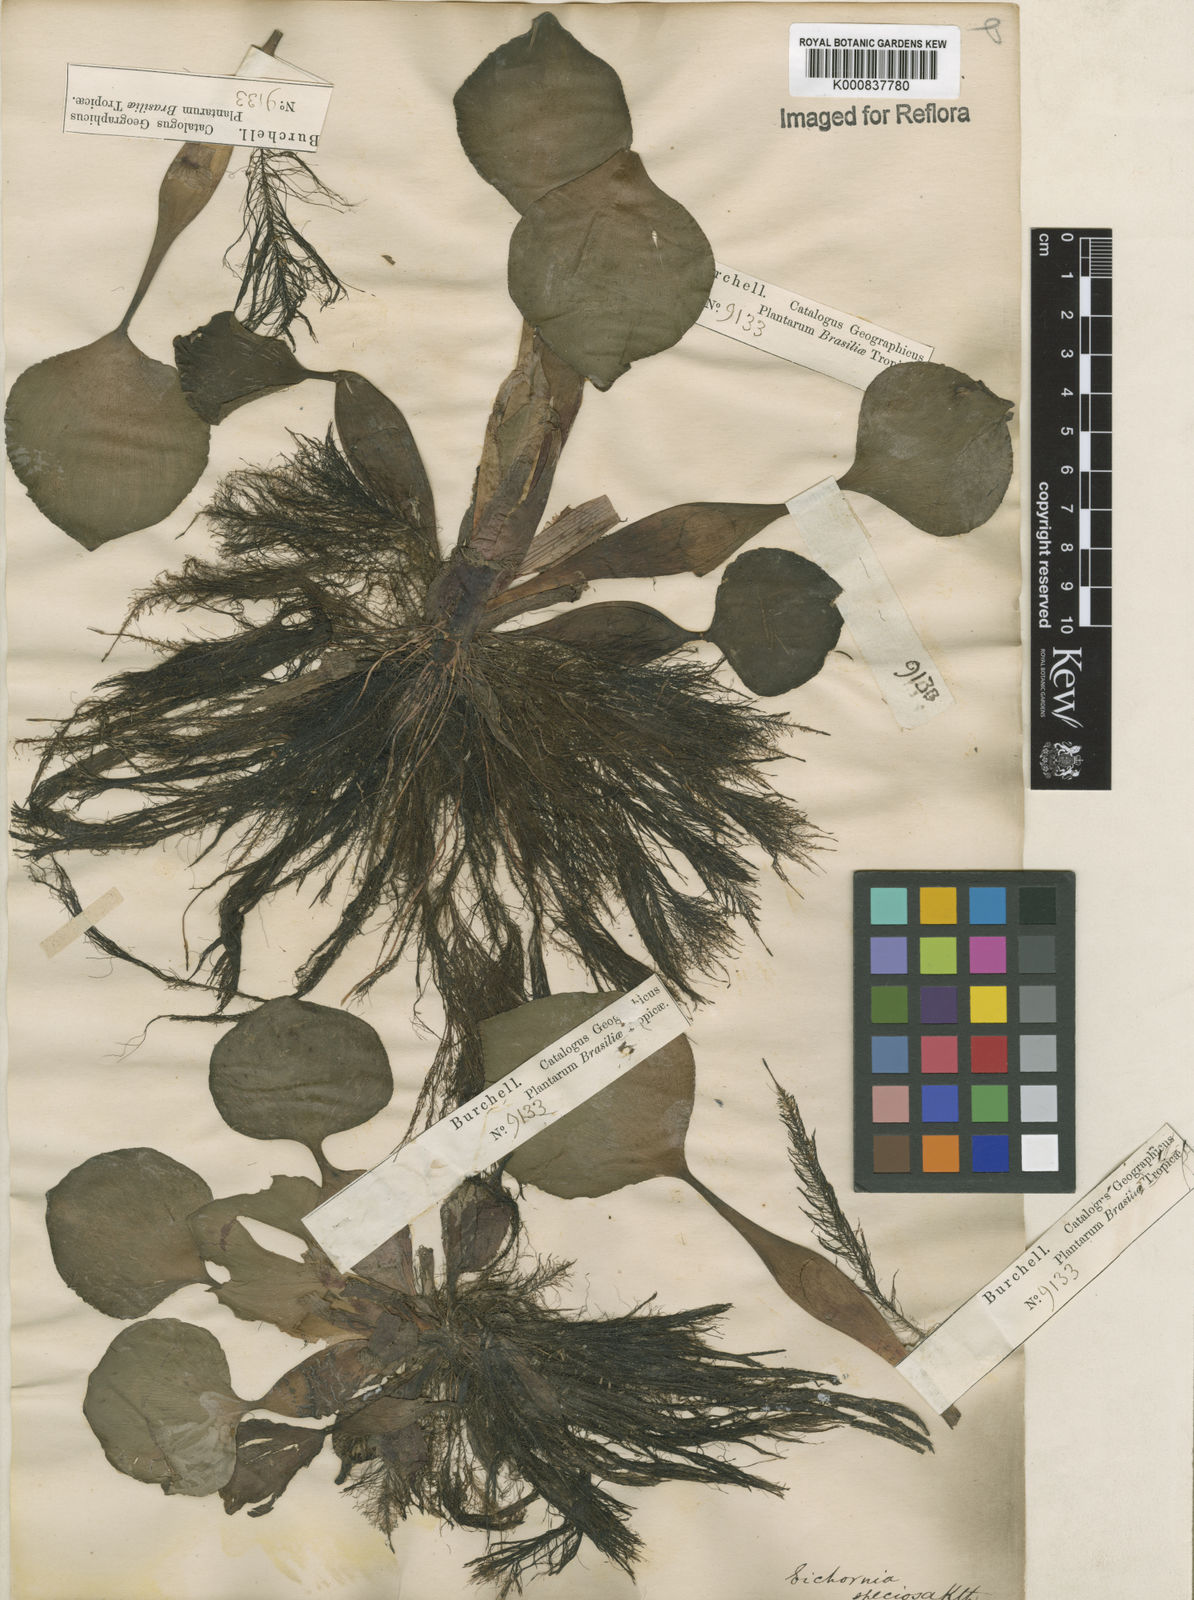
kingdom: Plantae
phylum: Tracheophyta
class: Liliopsida
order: Commelinales
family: Pontederiaceae
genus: Pontederia
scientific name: Pontederia crassipes
